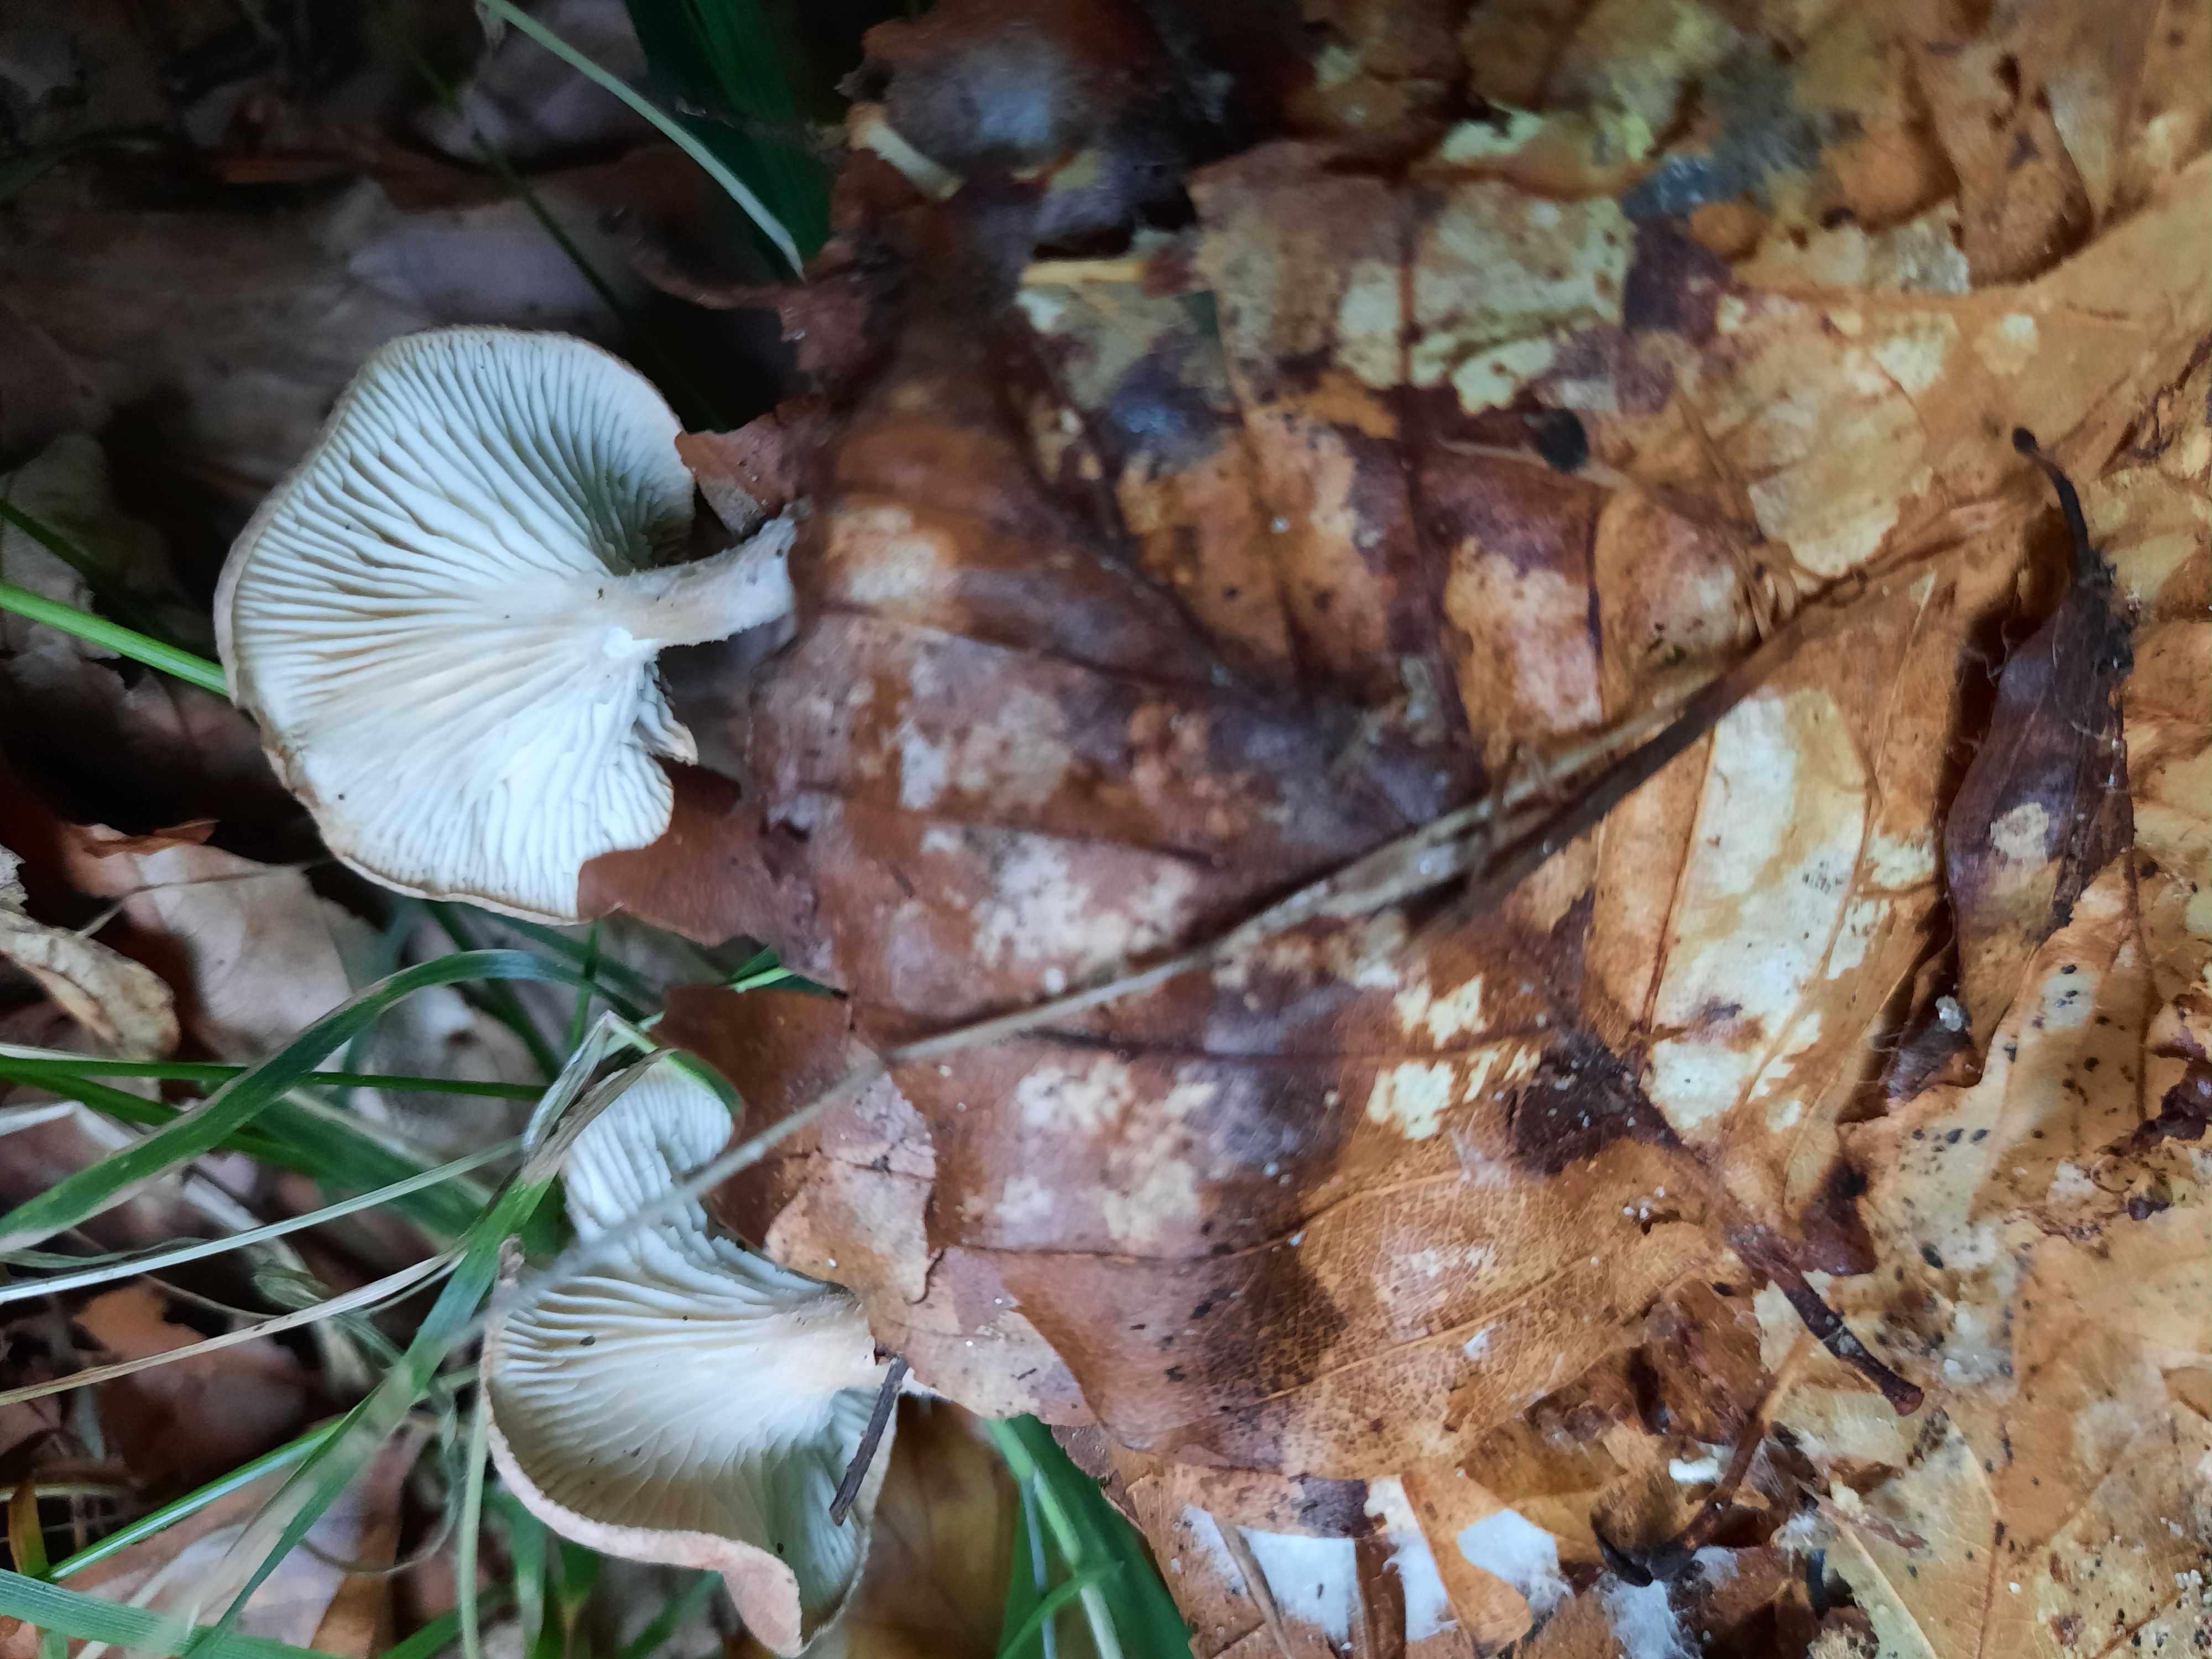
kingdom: Fungi
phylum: Basidiomycota
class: Agaricomycetes
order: Agaricales
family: Tricholomataceae
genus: Infundibulicybe
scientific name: Infundibulicybe gibba
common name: almindelig tragthat
